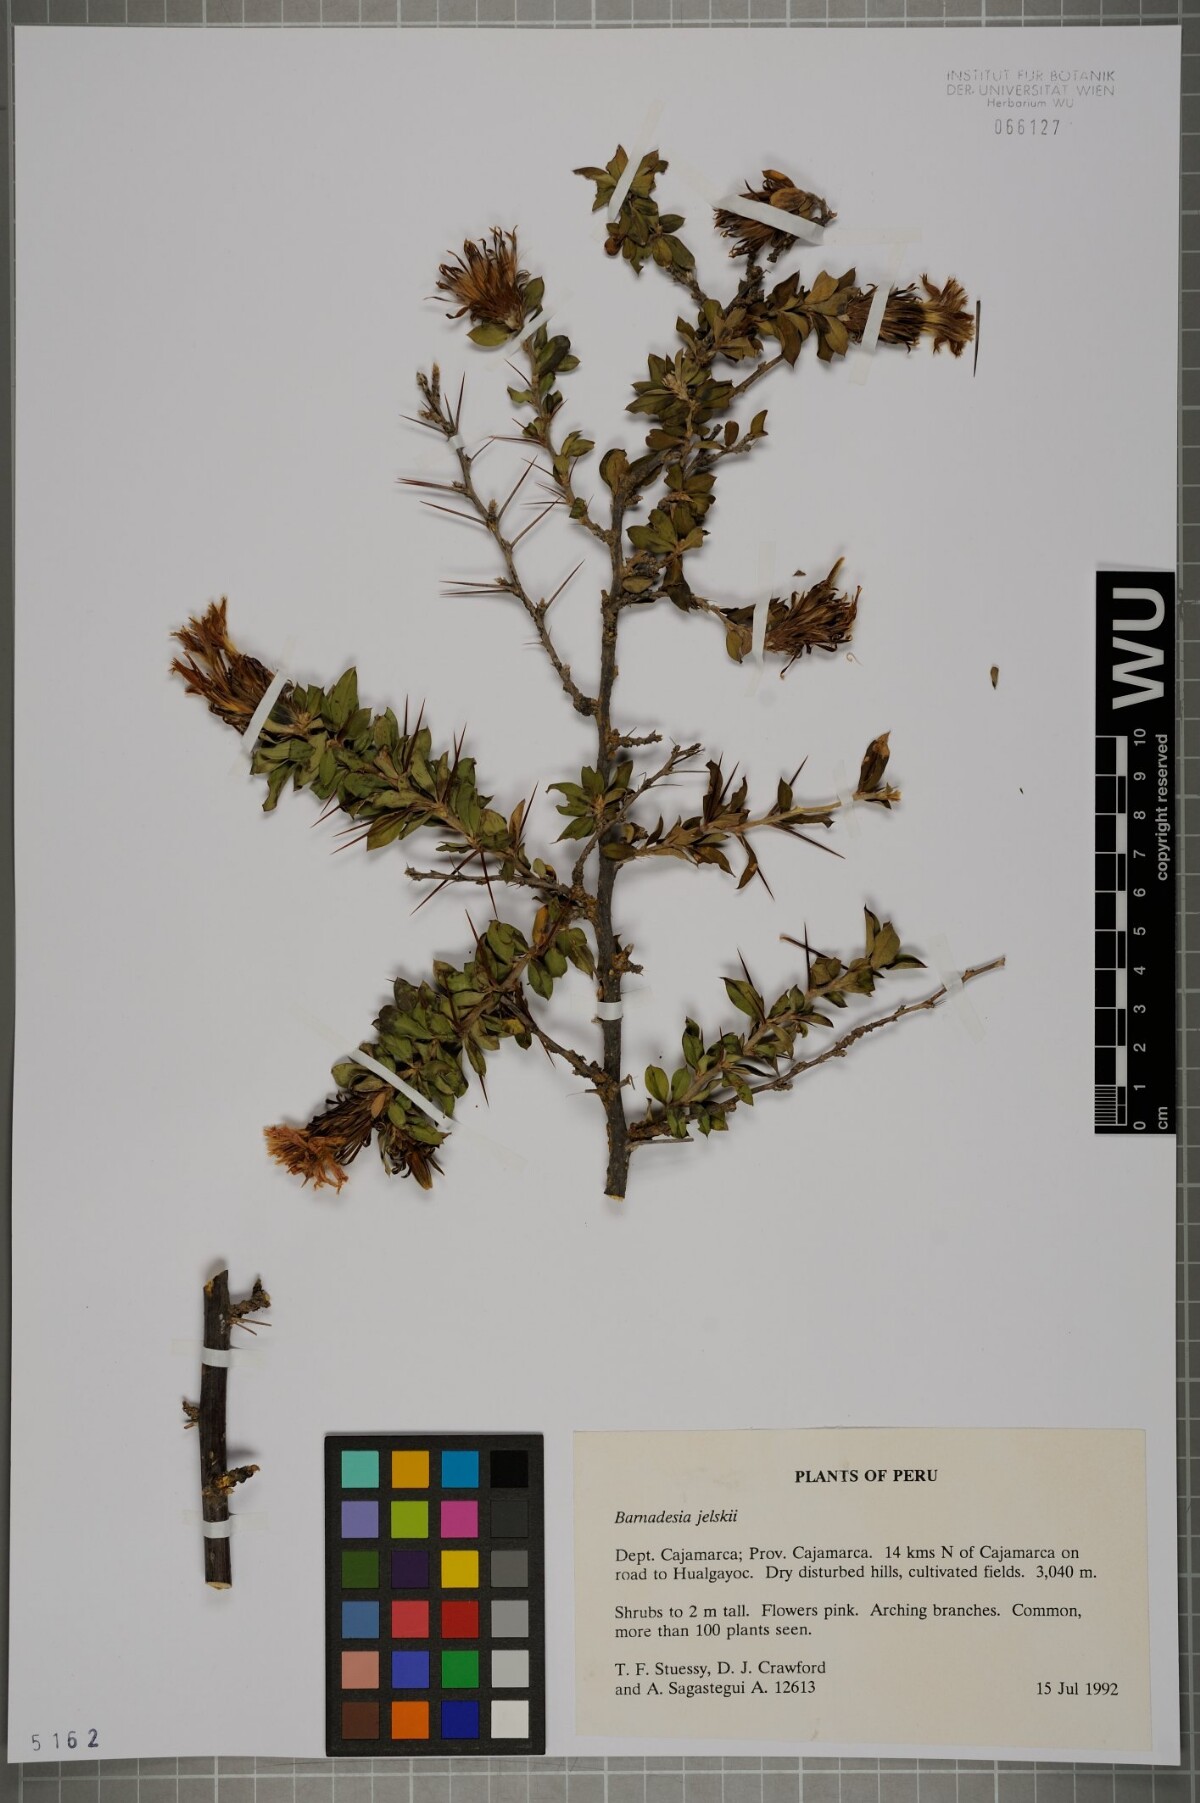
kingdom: Plantae
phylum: Tracheophyta
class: Magnoliopsida
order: Asterales
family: Asteraceae
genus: Barnadesia
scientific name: Barnadesia jelskii
